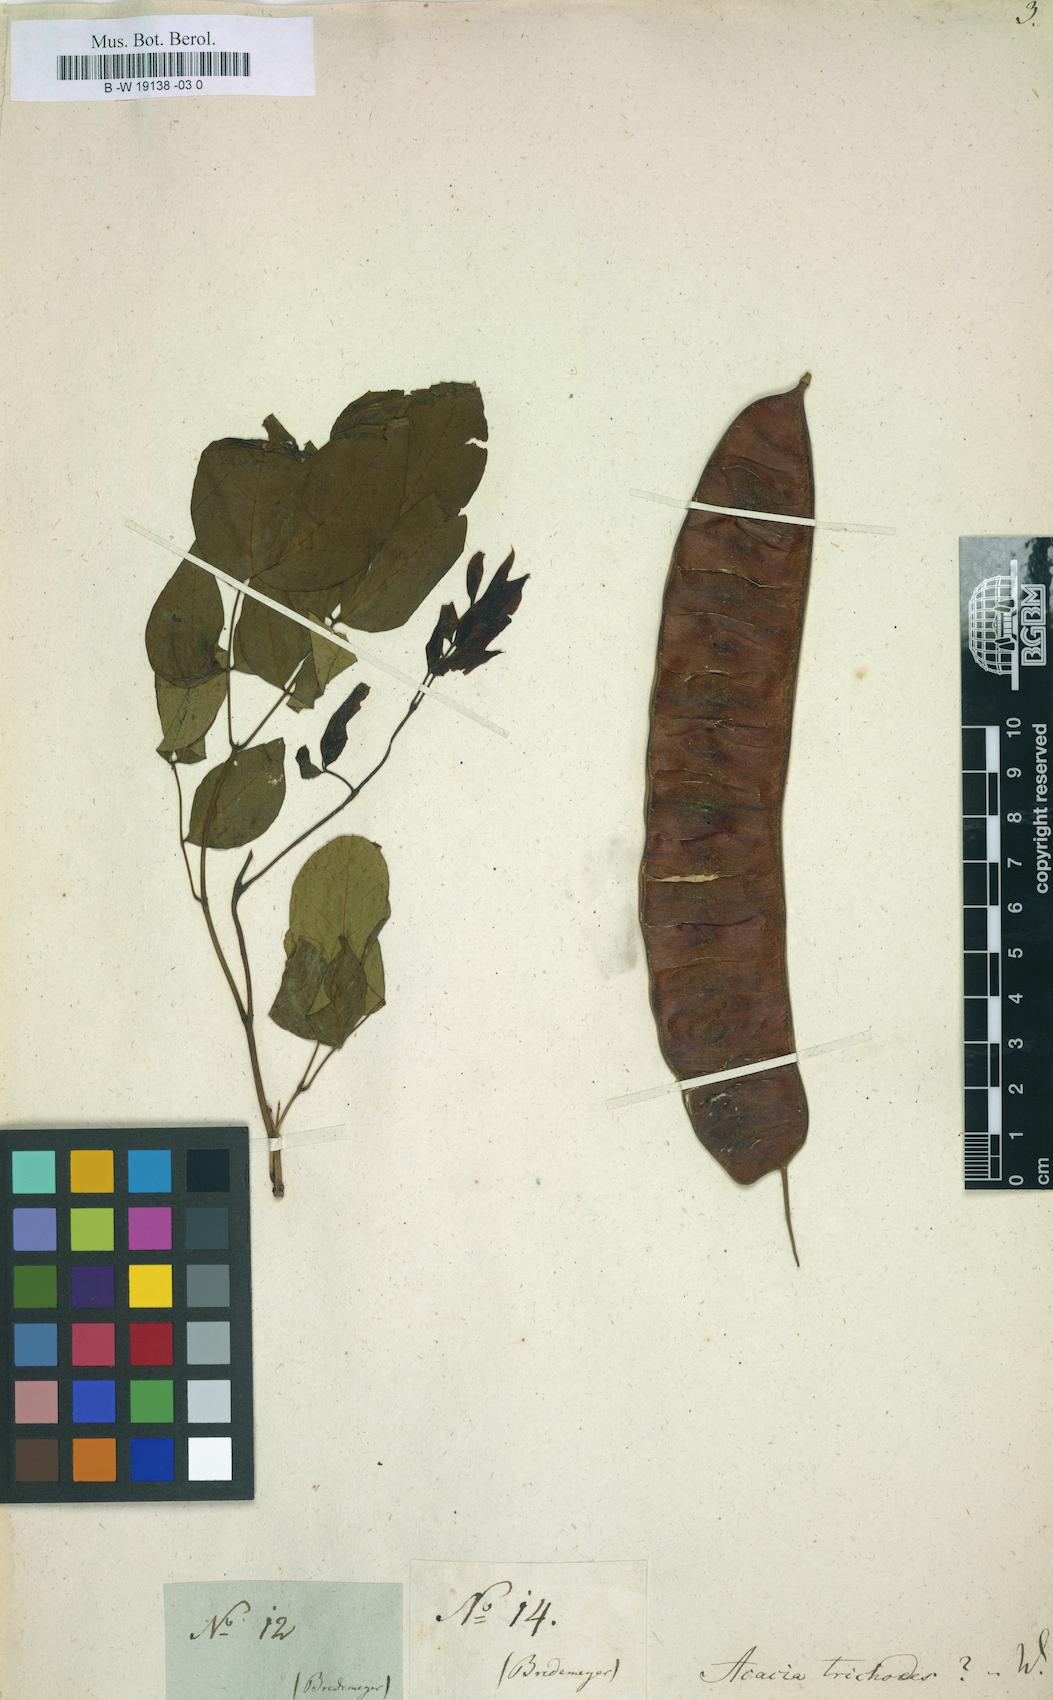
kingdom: Plantae
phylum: Tracheophyta
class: Magnoliopsida
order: Fabales
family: Fabaceae
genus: Leucaena
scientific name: Leucaena trichodes
